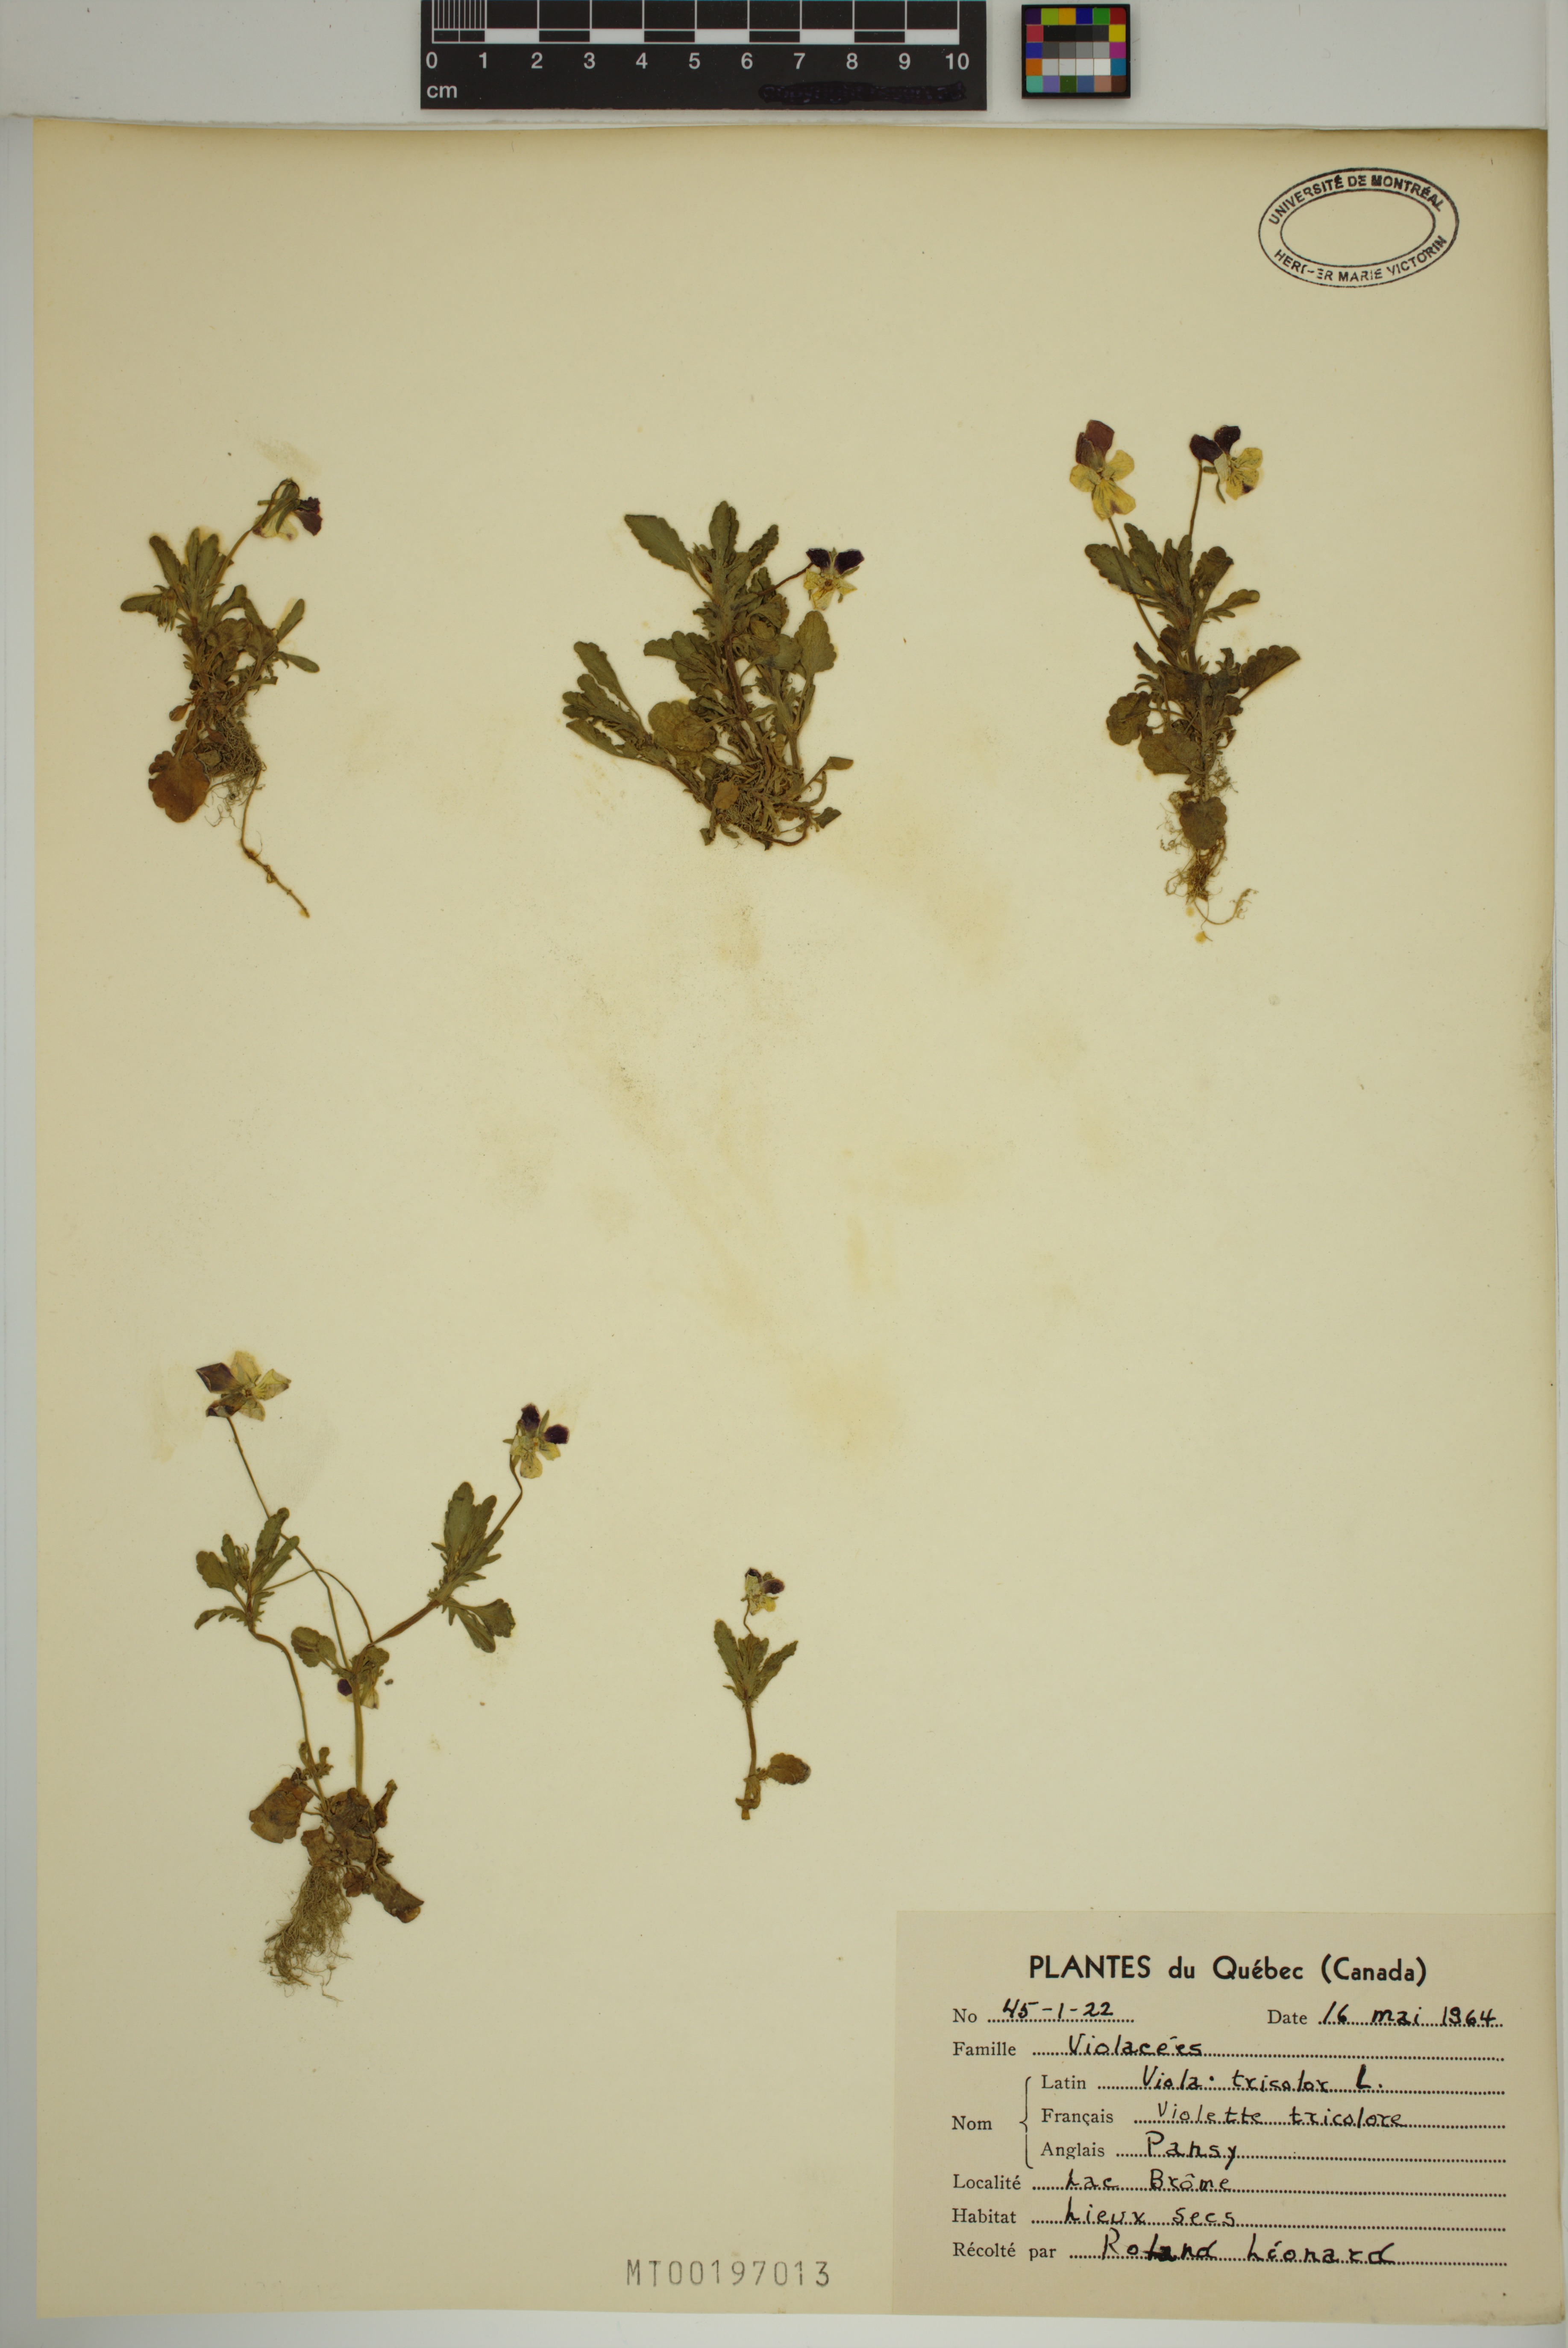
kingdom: Plantae
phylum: Tracheophyta
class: Magnoliopsida
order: Malpighiales
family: Violaceae
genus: Viola
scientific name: Viola tricolor
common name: Pansy
